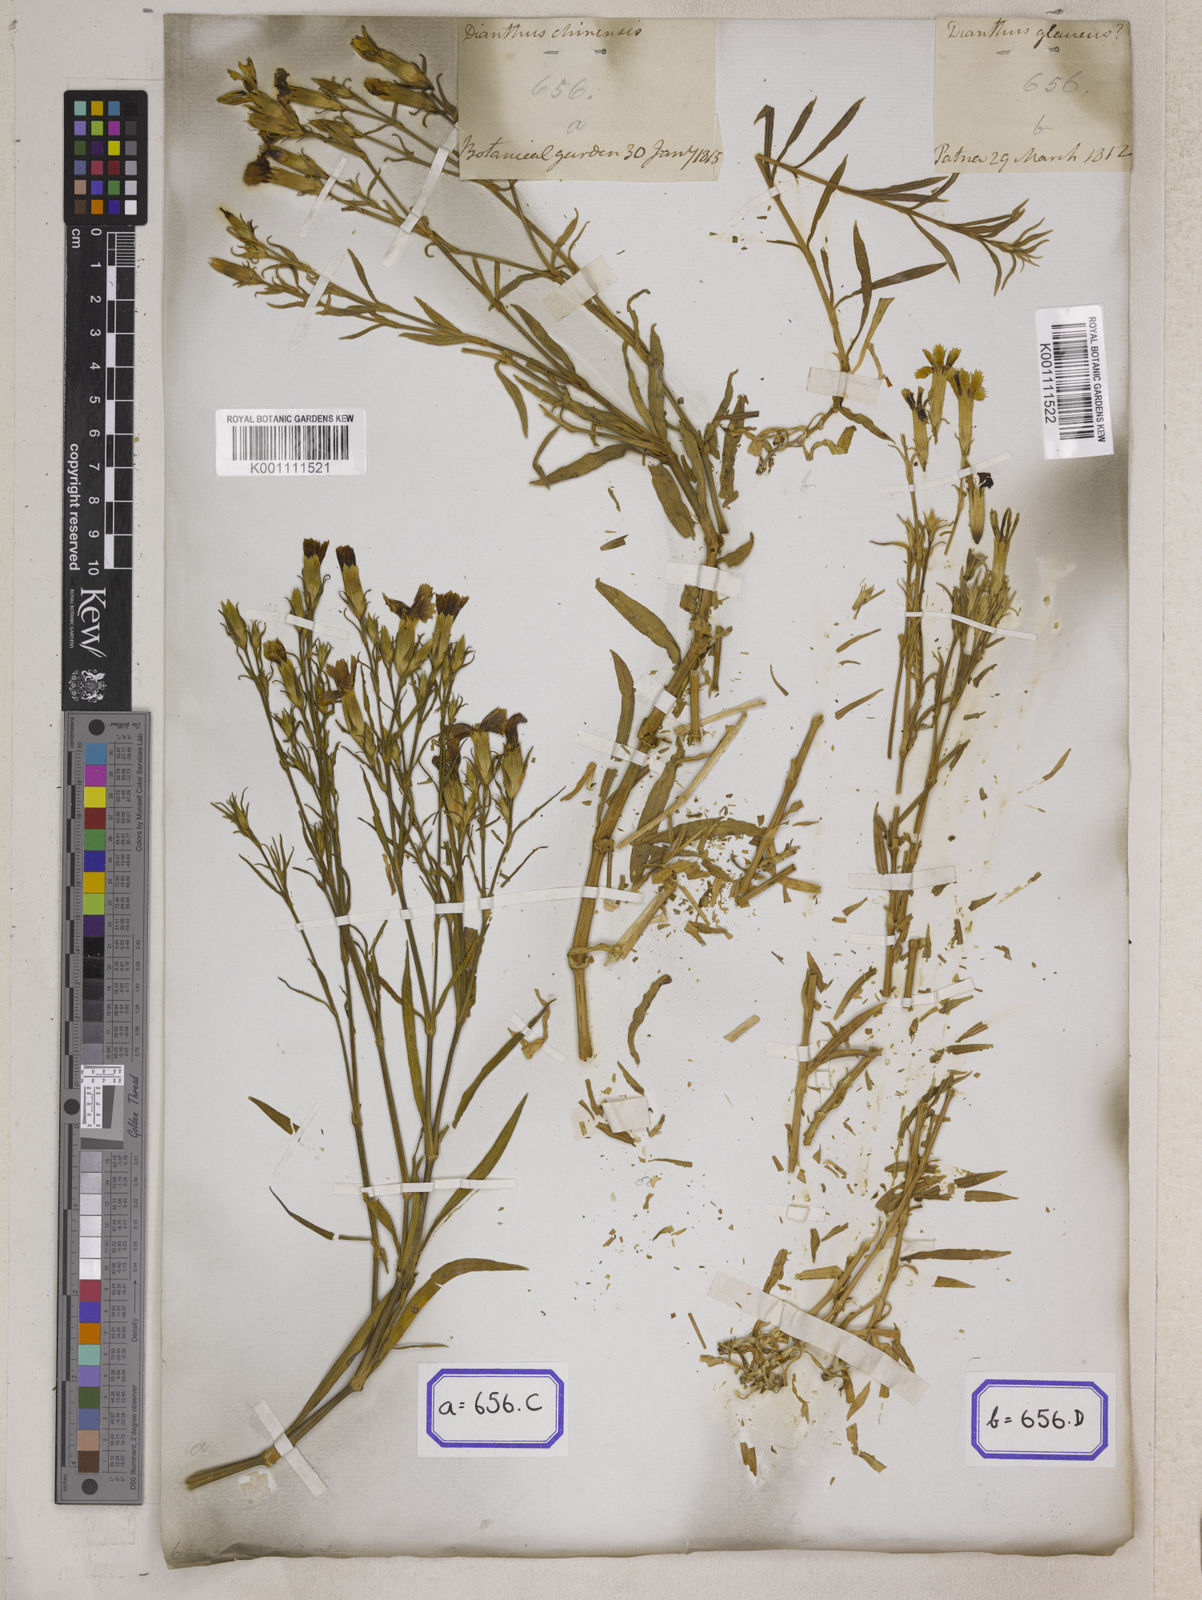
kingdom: Plantae
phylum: Tracheophyta
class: Magnoliopsida
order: Caryophyllales
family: Caryophyllaceae
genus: Dianthus
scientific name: Dianthus chinensis
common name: Rainbow pink
